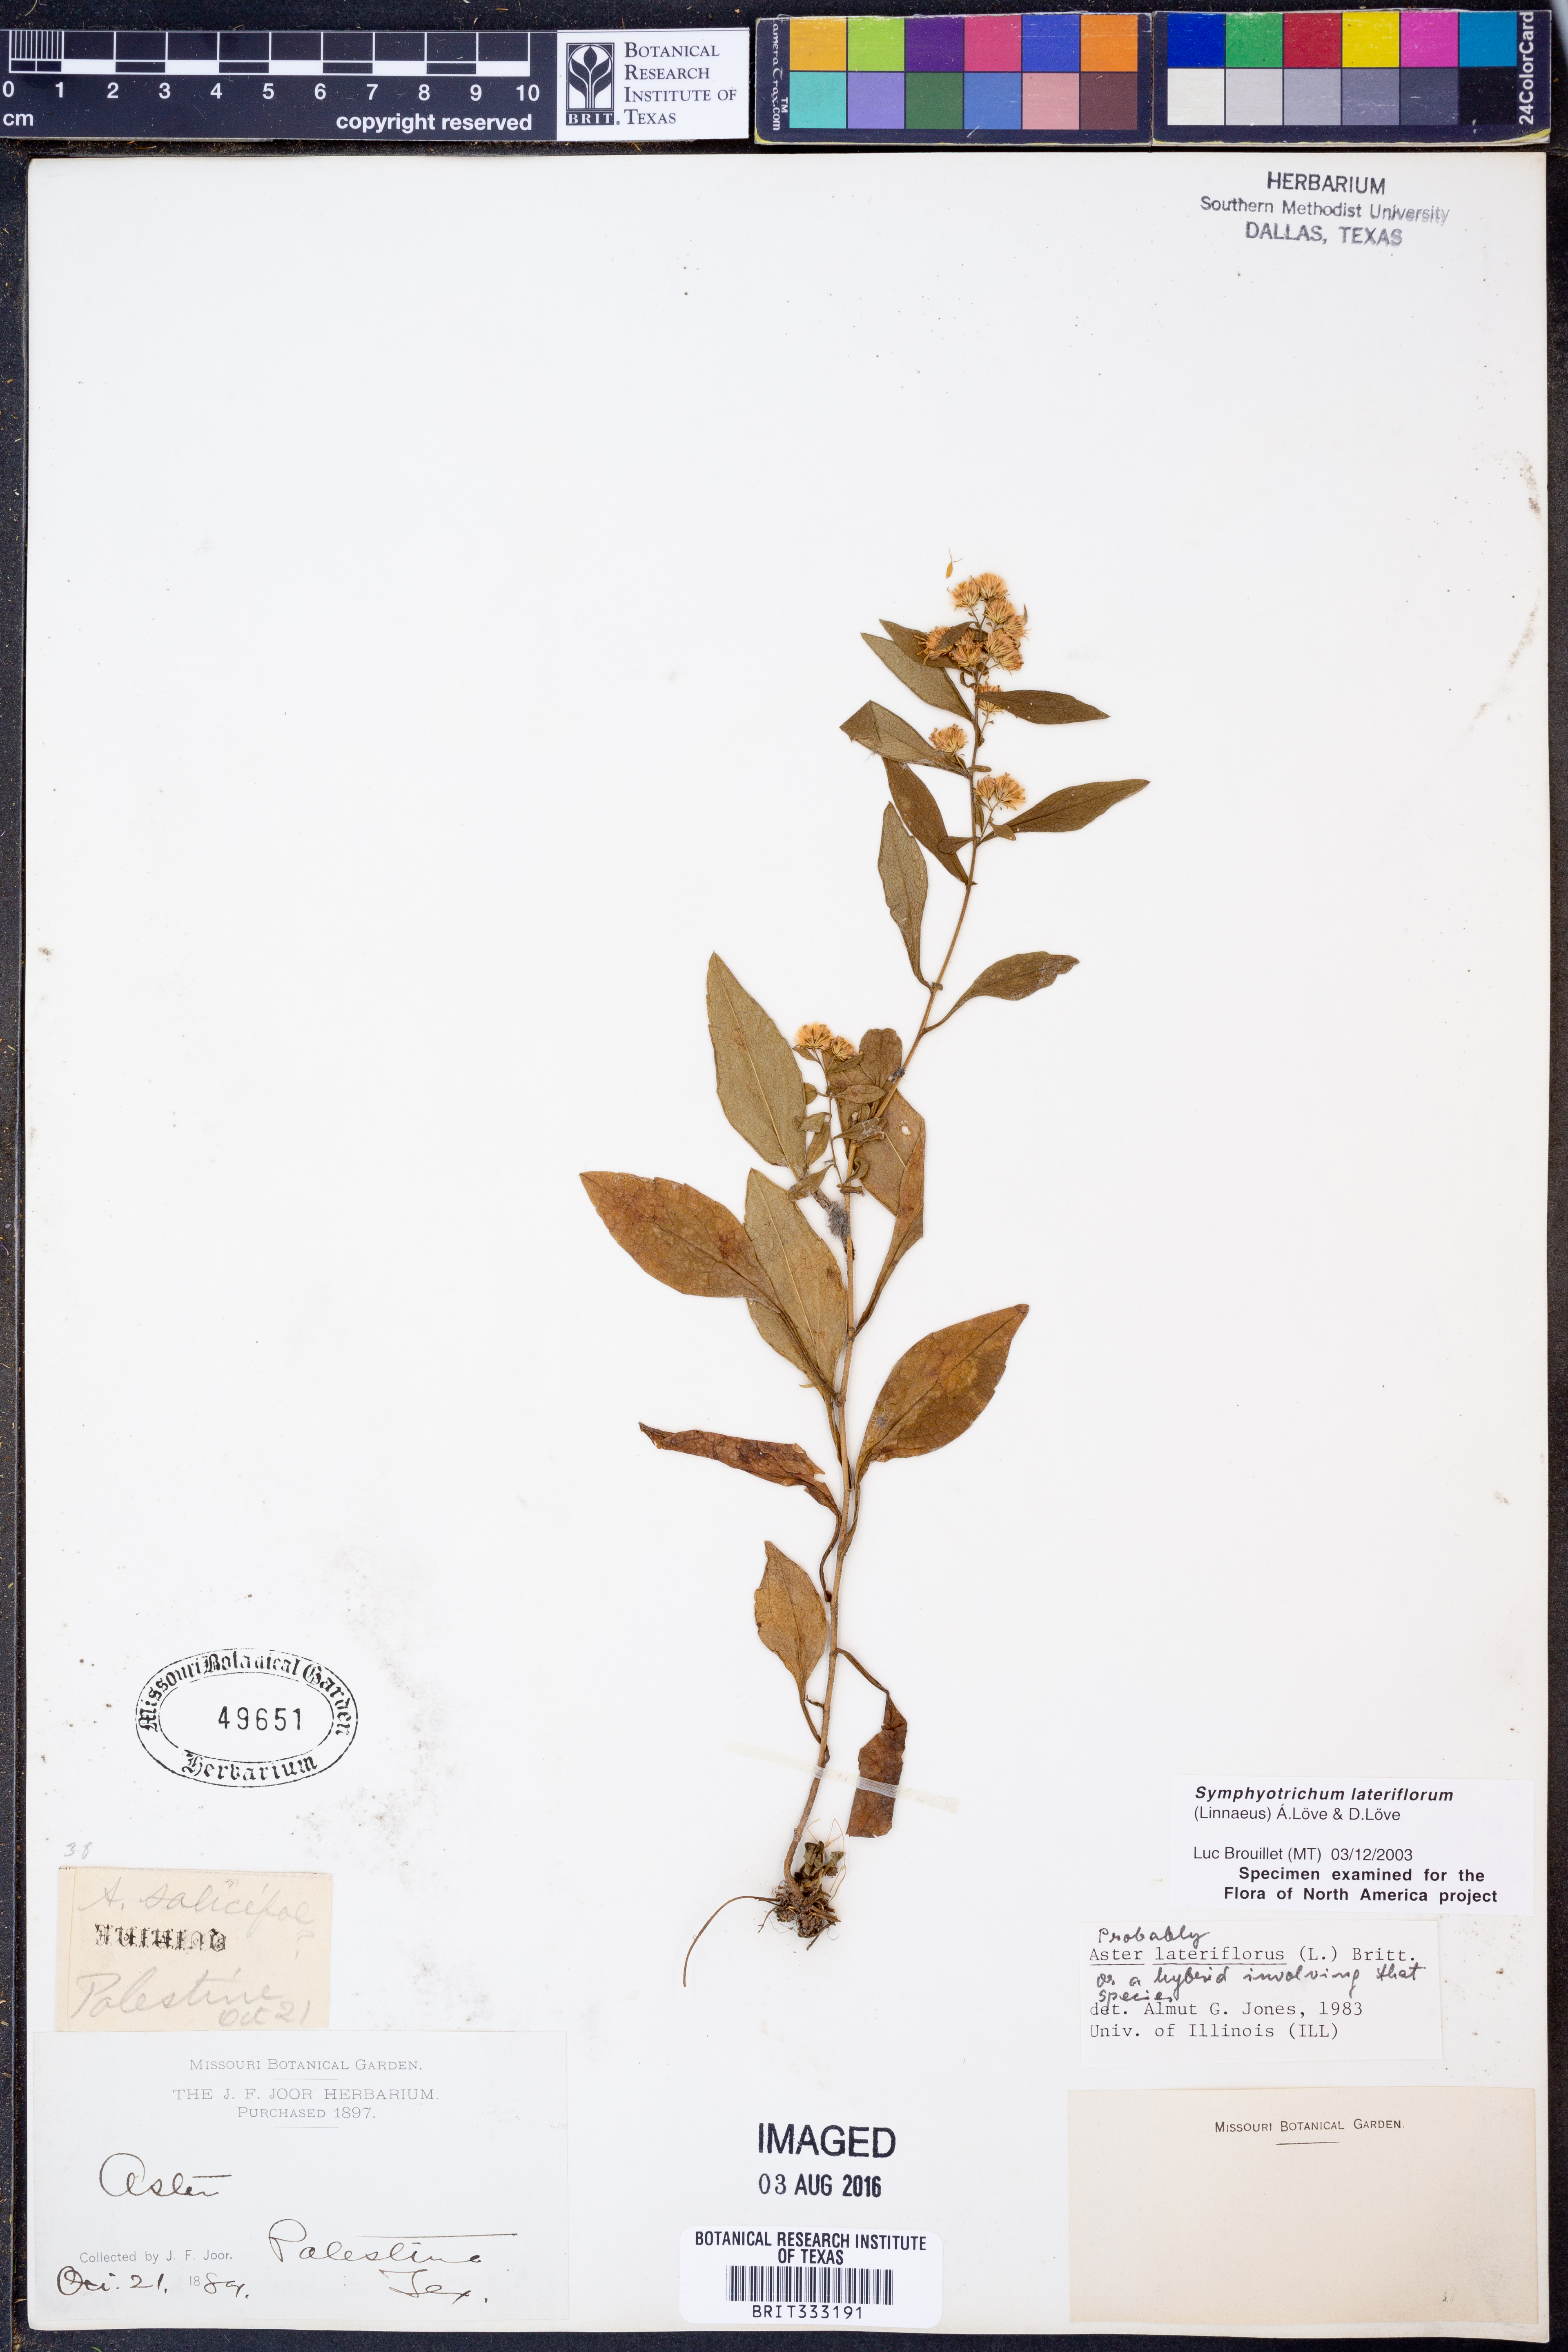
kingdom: Plantae
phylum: Tracheophyta
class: Magnoliopsida
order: Asterales
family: Asteraceae
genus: Symphyotrichum
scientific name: Symphyotrichum lateriflorum
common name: Calico aster
